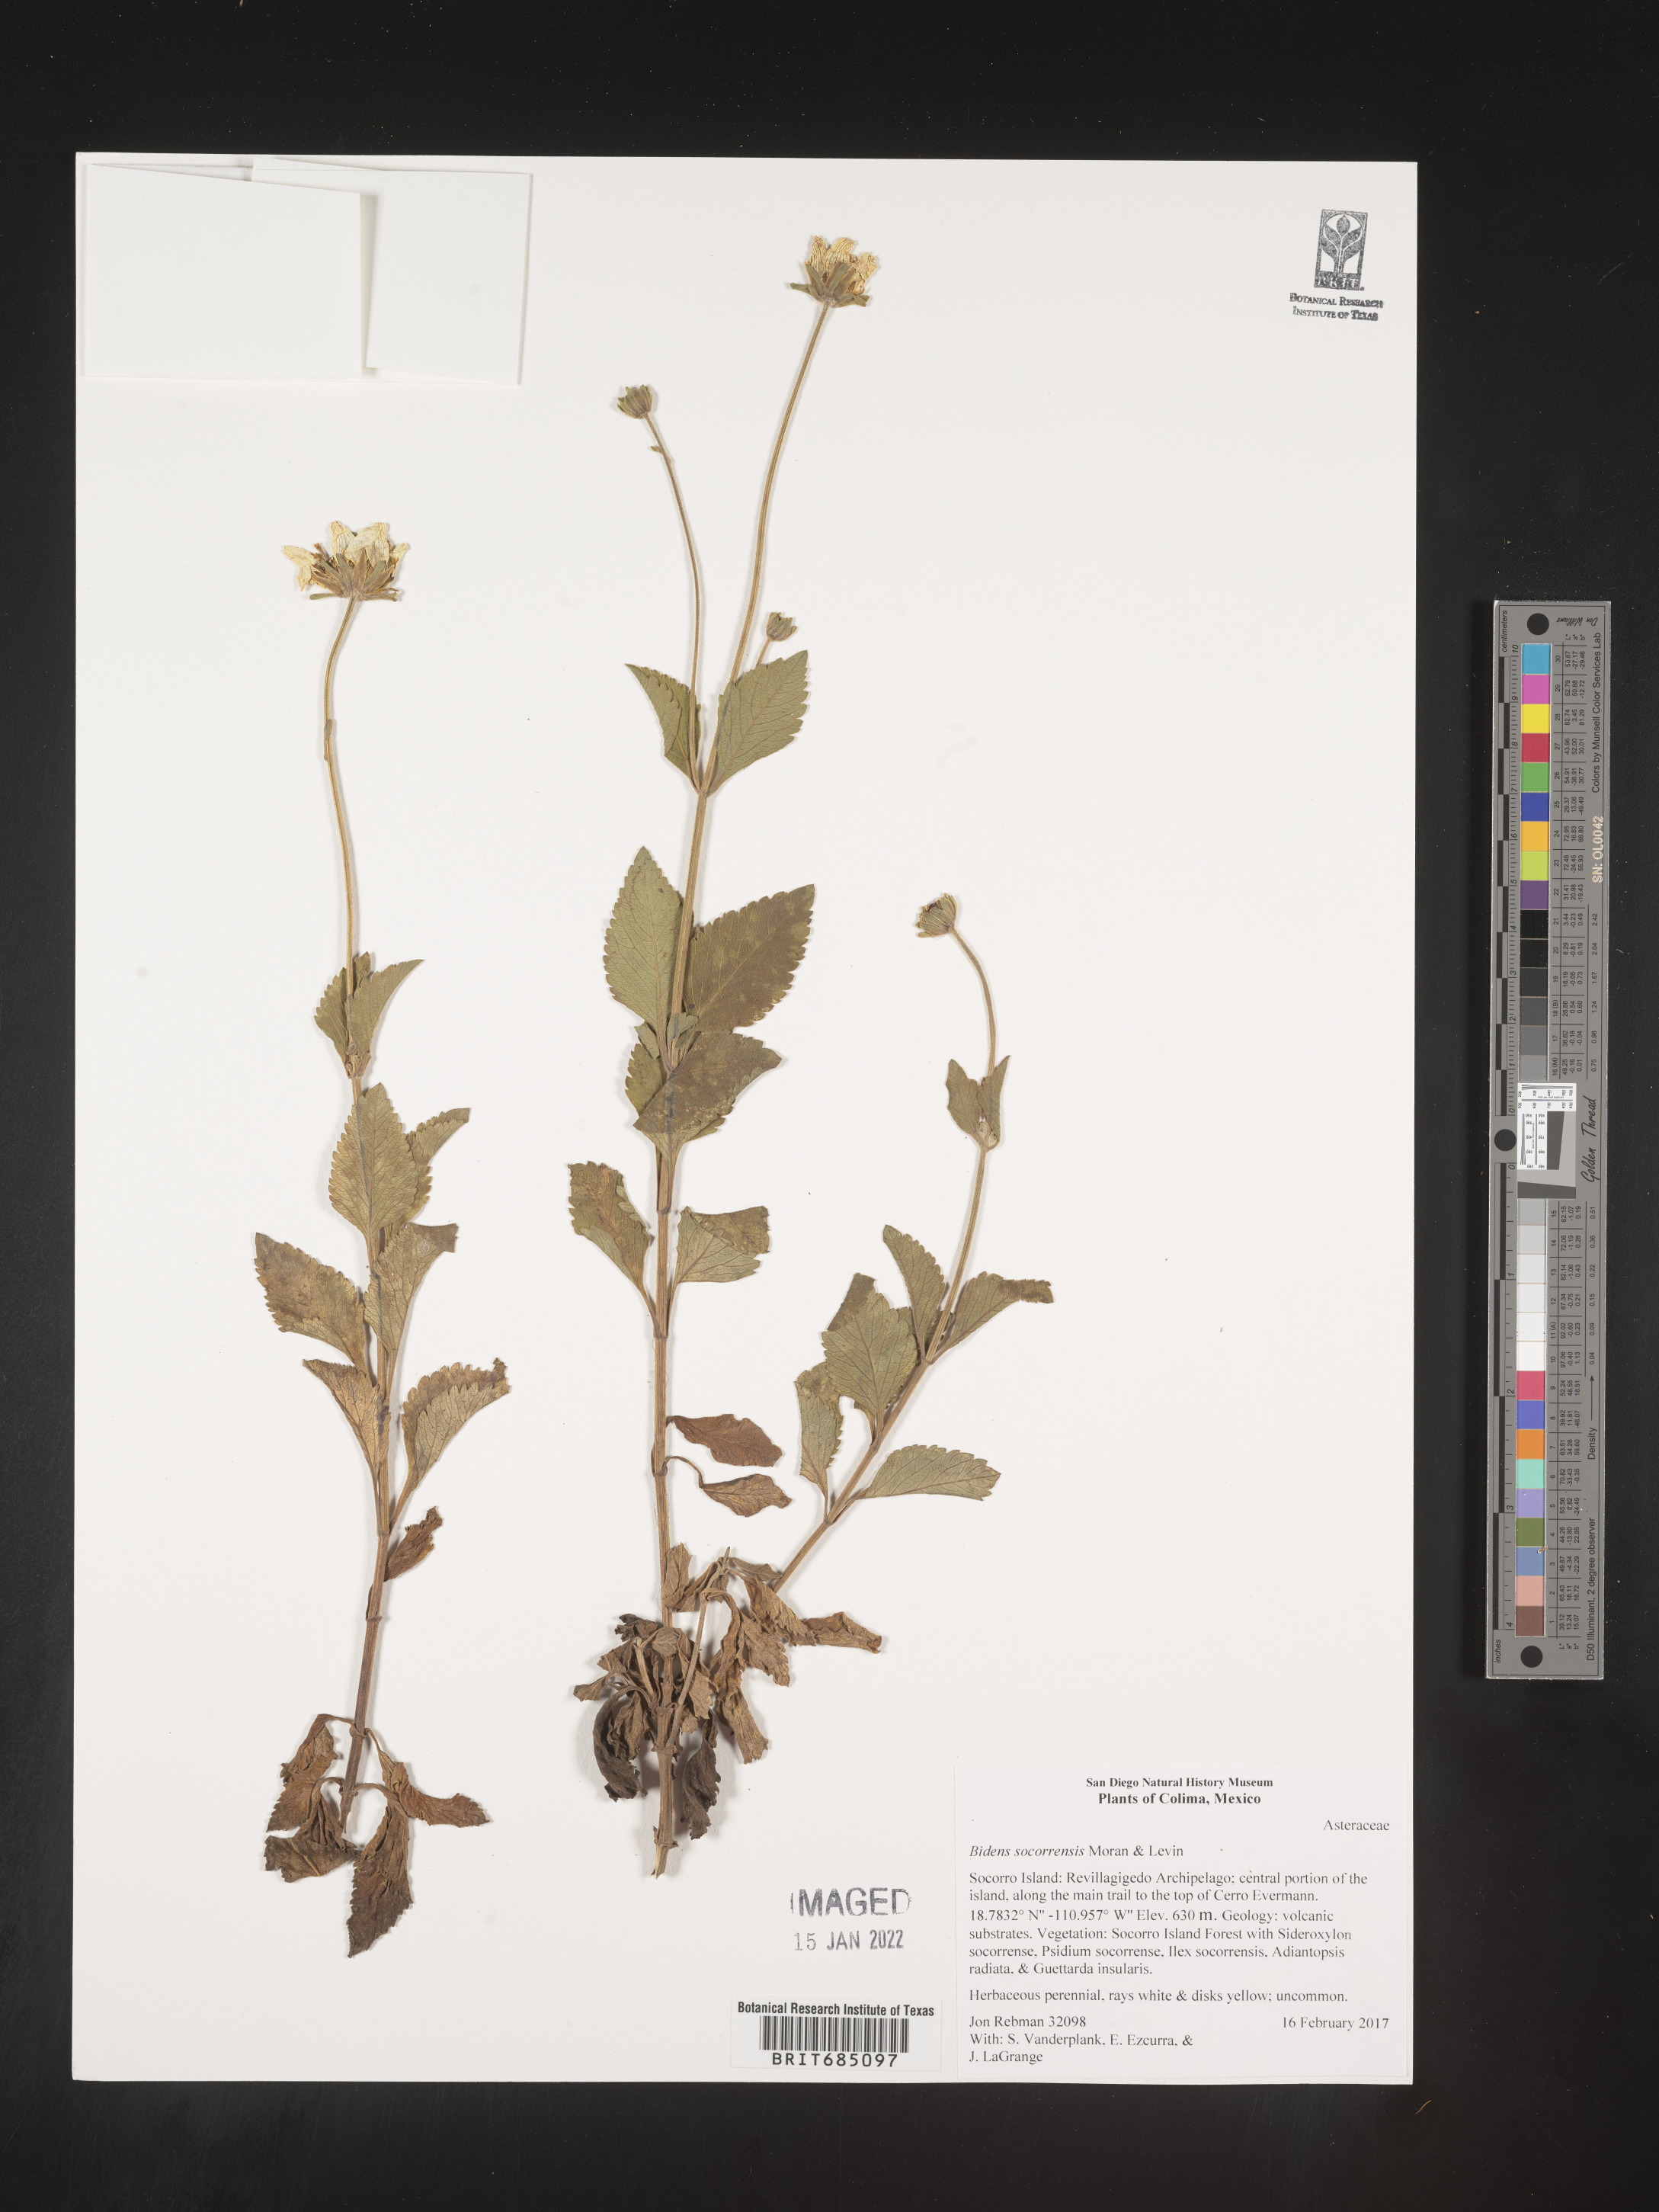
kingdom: Plantae
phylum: Tracheophyta
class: Magnoliopsida
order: Asterales
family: Asteraceae
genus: Bidens
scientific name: Bidens
